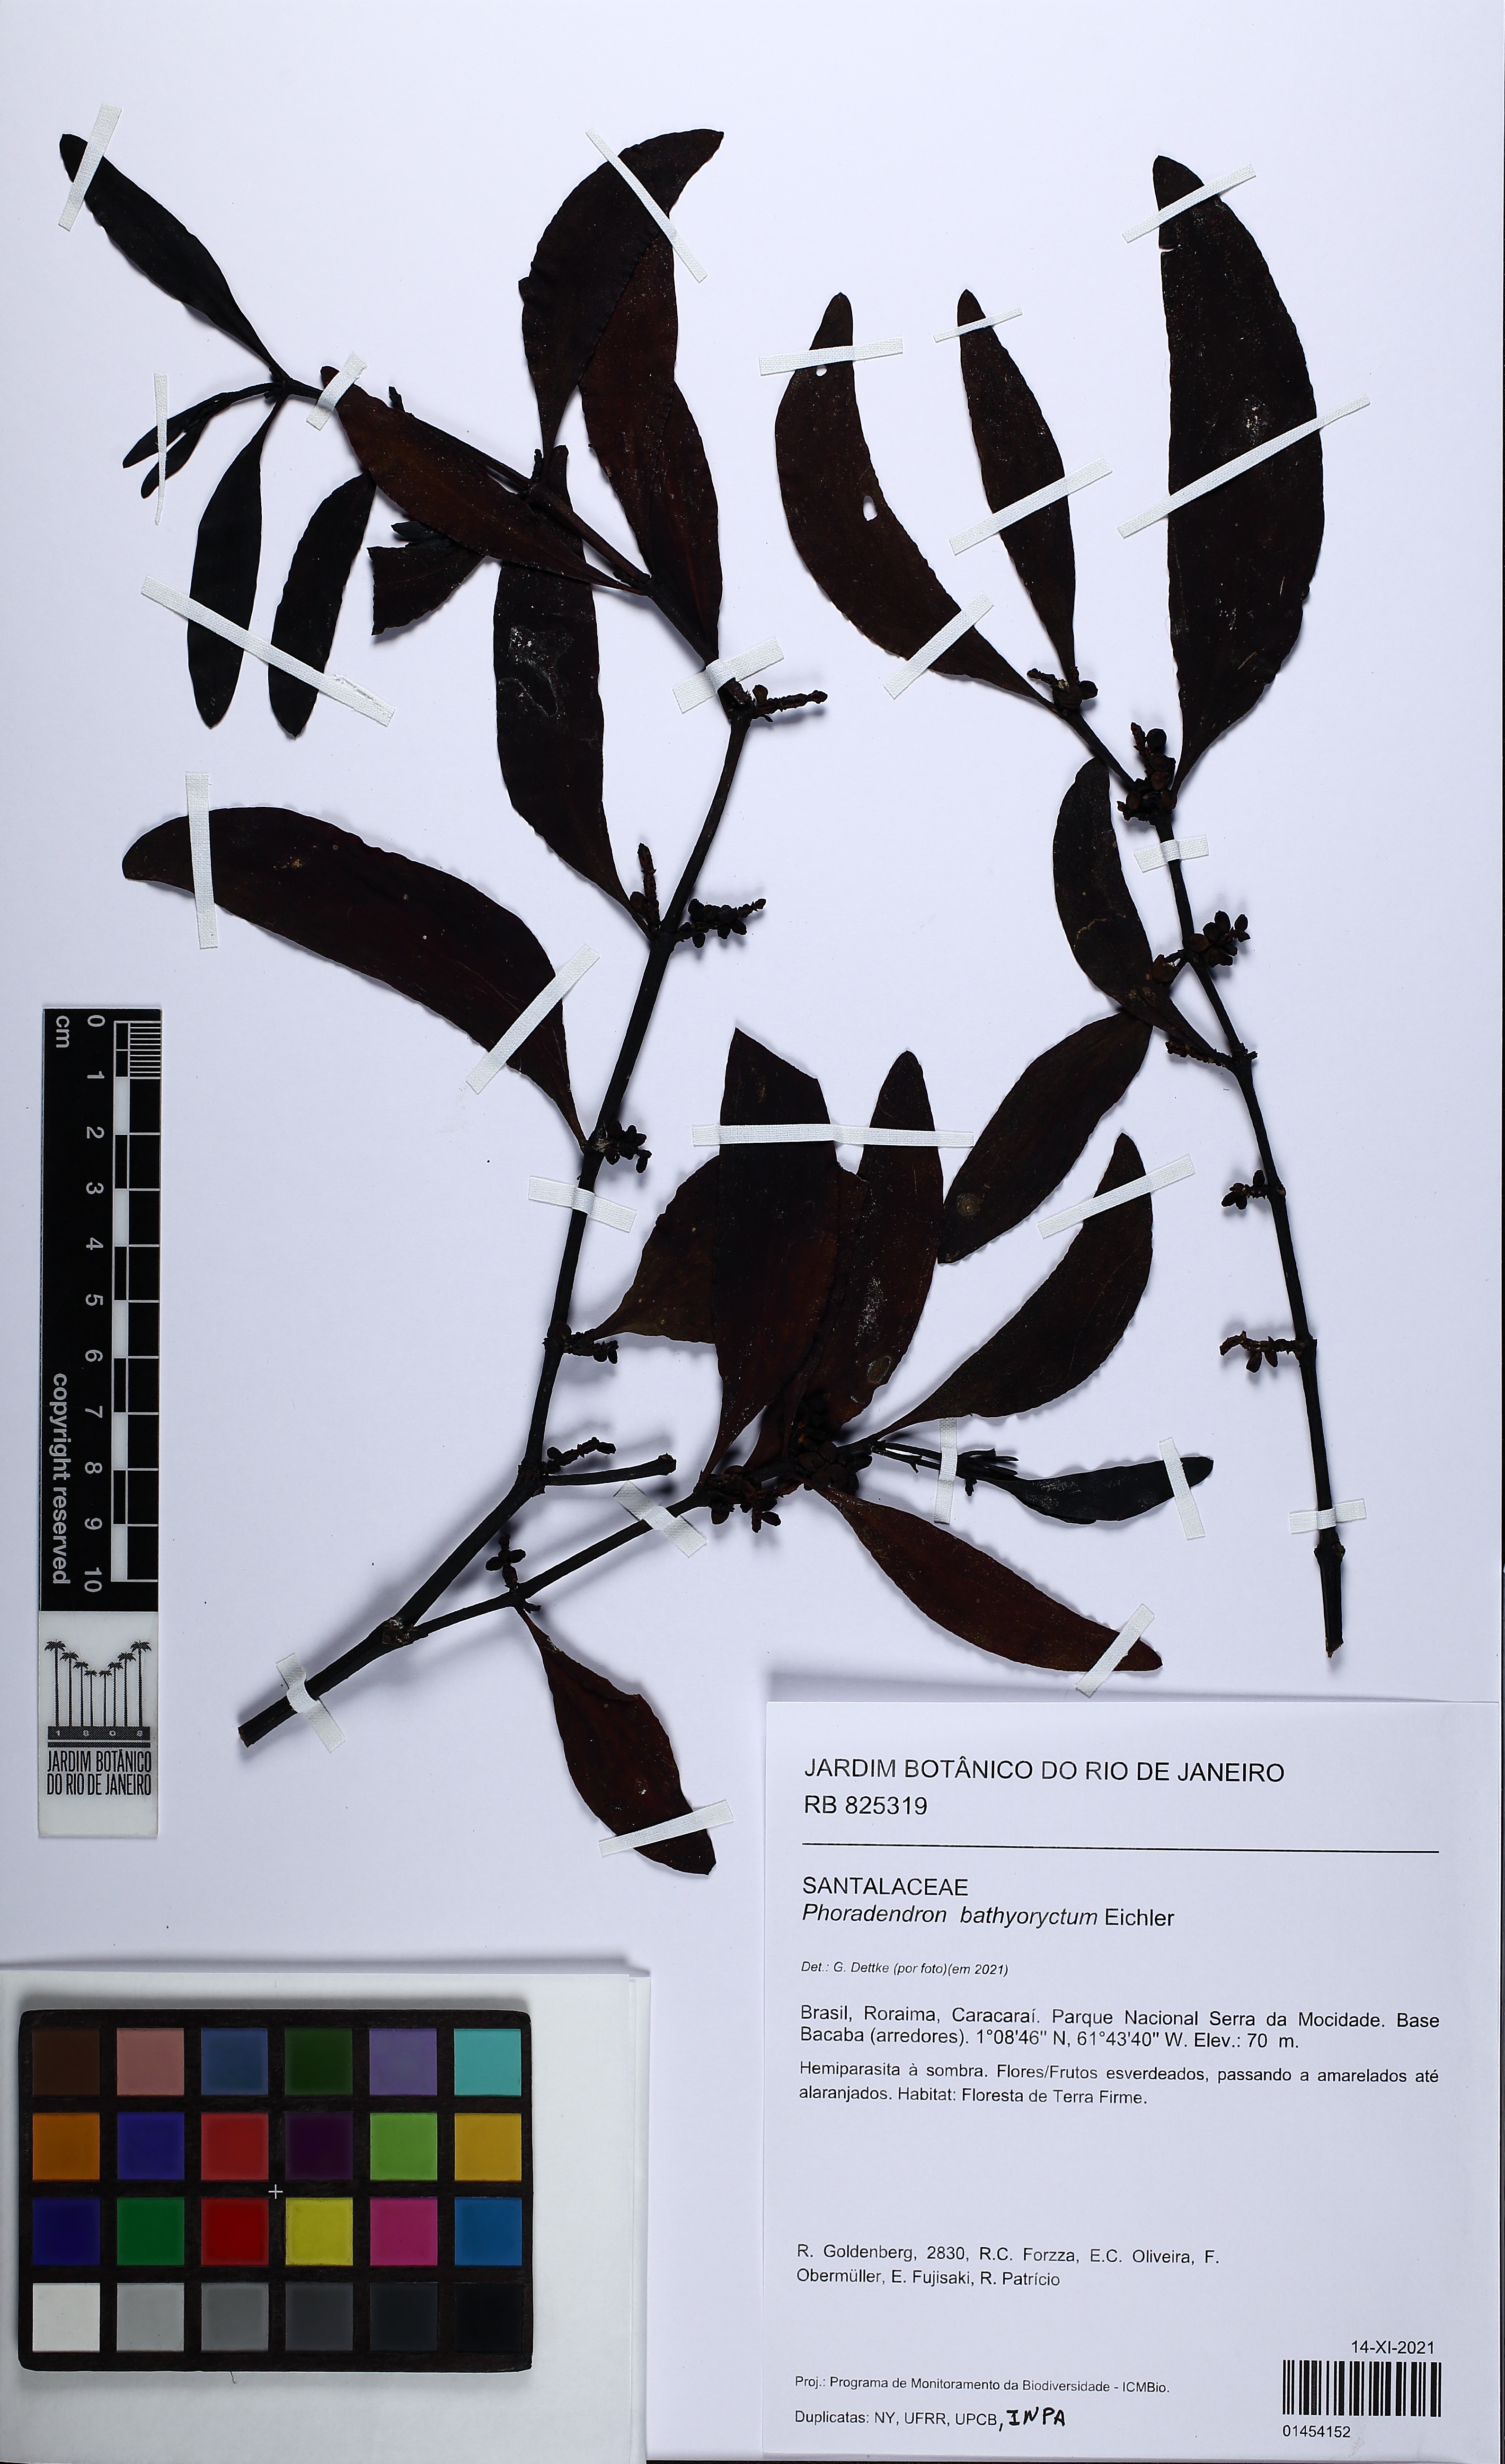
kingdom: Plantae
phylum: Tracheophyta
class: Magnoliopsida
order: Santalales
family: Viscaceae
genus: Phoradendron
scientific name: Phoradendron bathyoryctum
